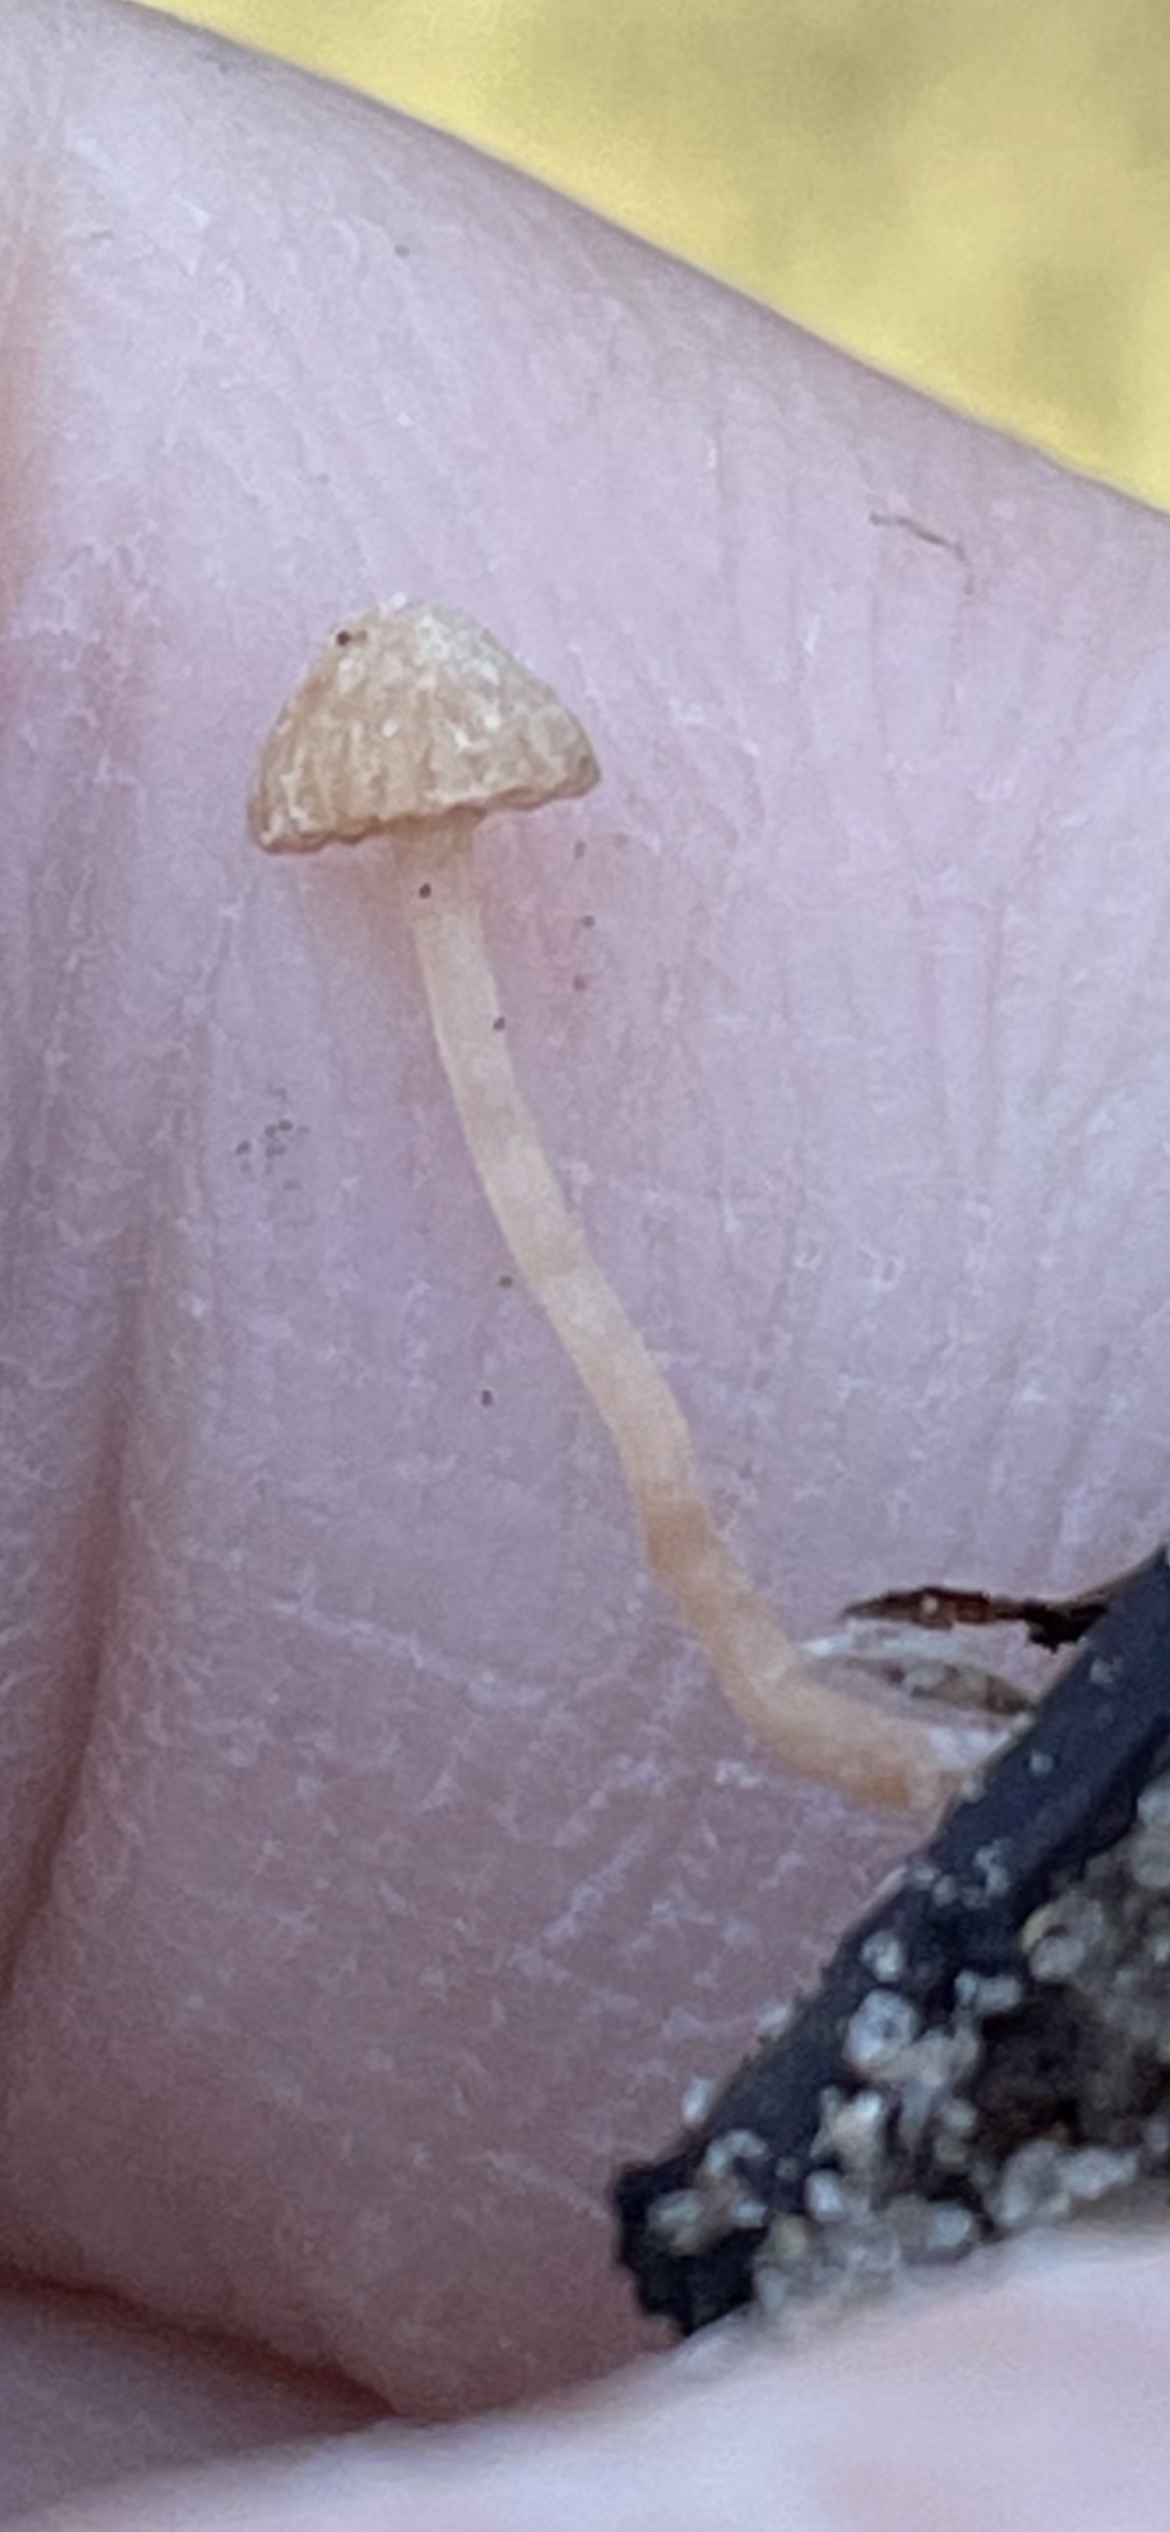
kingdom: Fungi
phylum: Basidiomycota
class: Agaricomycetes
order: Agaricales
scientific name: Agaricales
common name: champignonordenen
